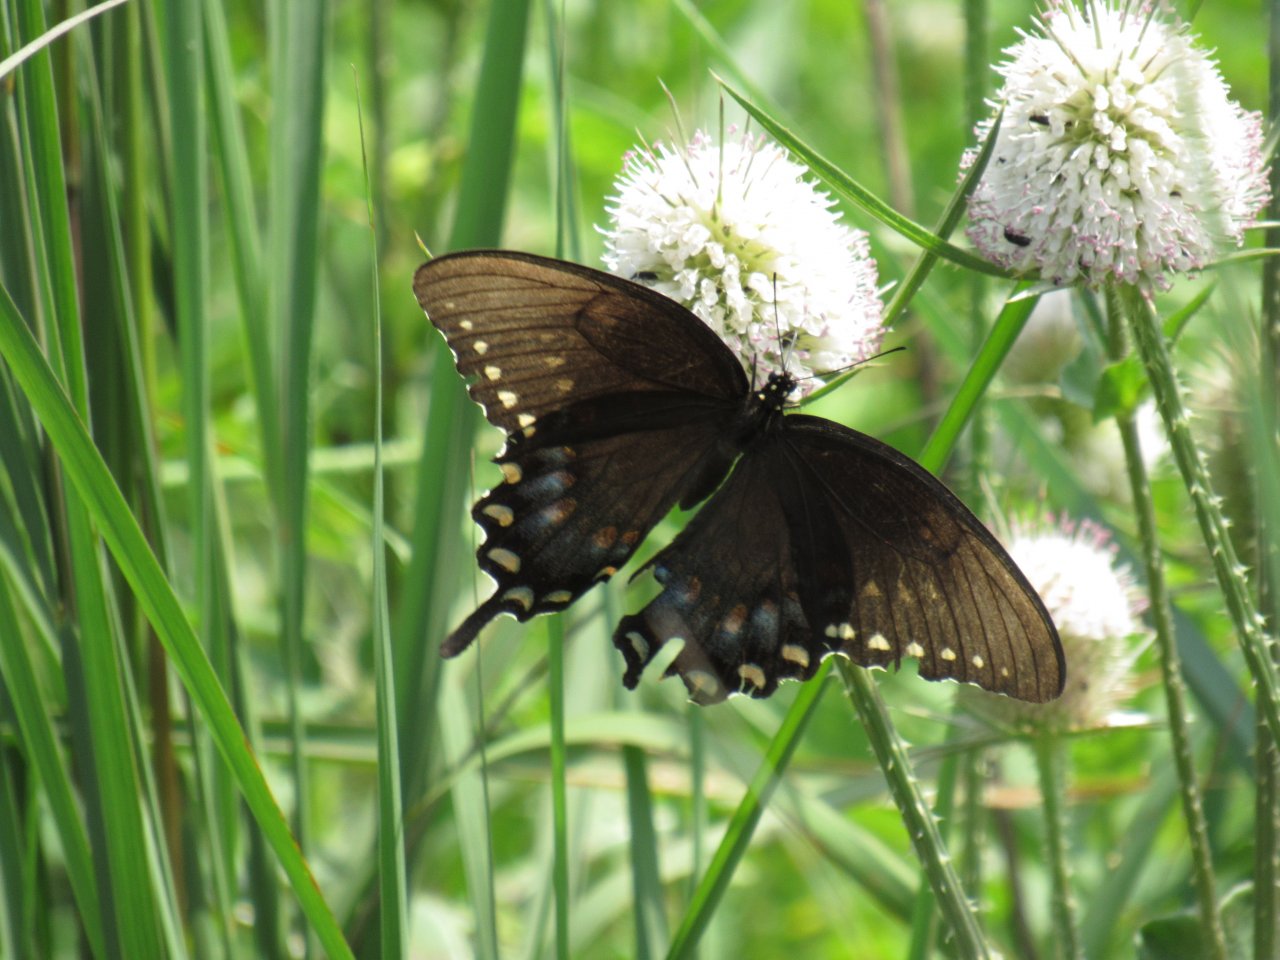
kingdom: Animalia
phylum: Arthropoda
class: Insecta
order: Lepidoptera
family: Papilionidae
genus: Pterourus
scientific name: Pterourus troilus
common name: Spicebush Swallowtail
